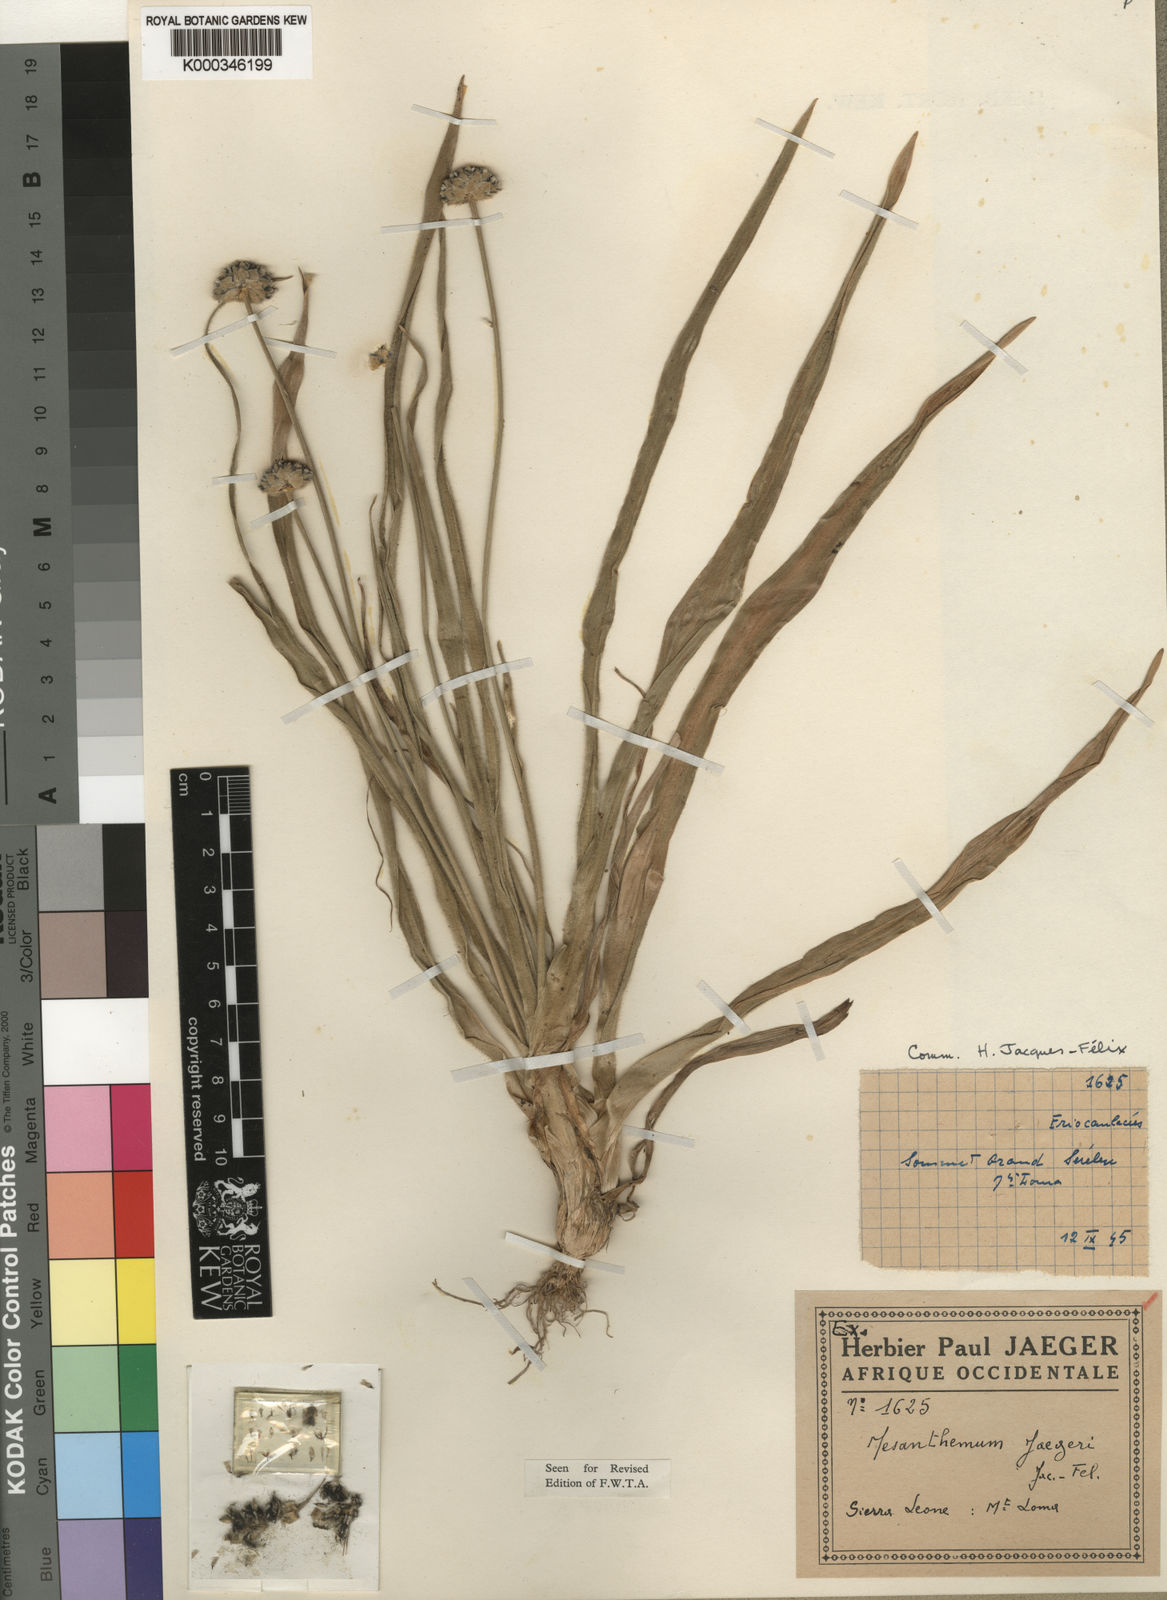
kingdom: Plantae
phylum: Tracheophyta
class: Liliopsida
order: Poales
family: Eriocaulaceae
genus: Mesanthemum
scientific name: Mesanthemum
